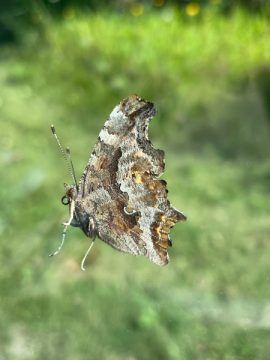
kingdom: Animalia
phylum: Arthropoda
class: Insecta
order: Lepidoptera
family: Nymphalidae
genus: Polygonia
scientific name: Polygonia comma
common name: Eastern Comma
